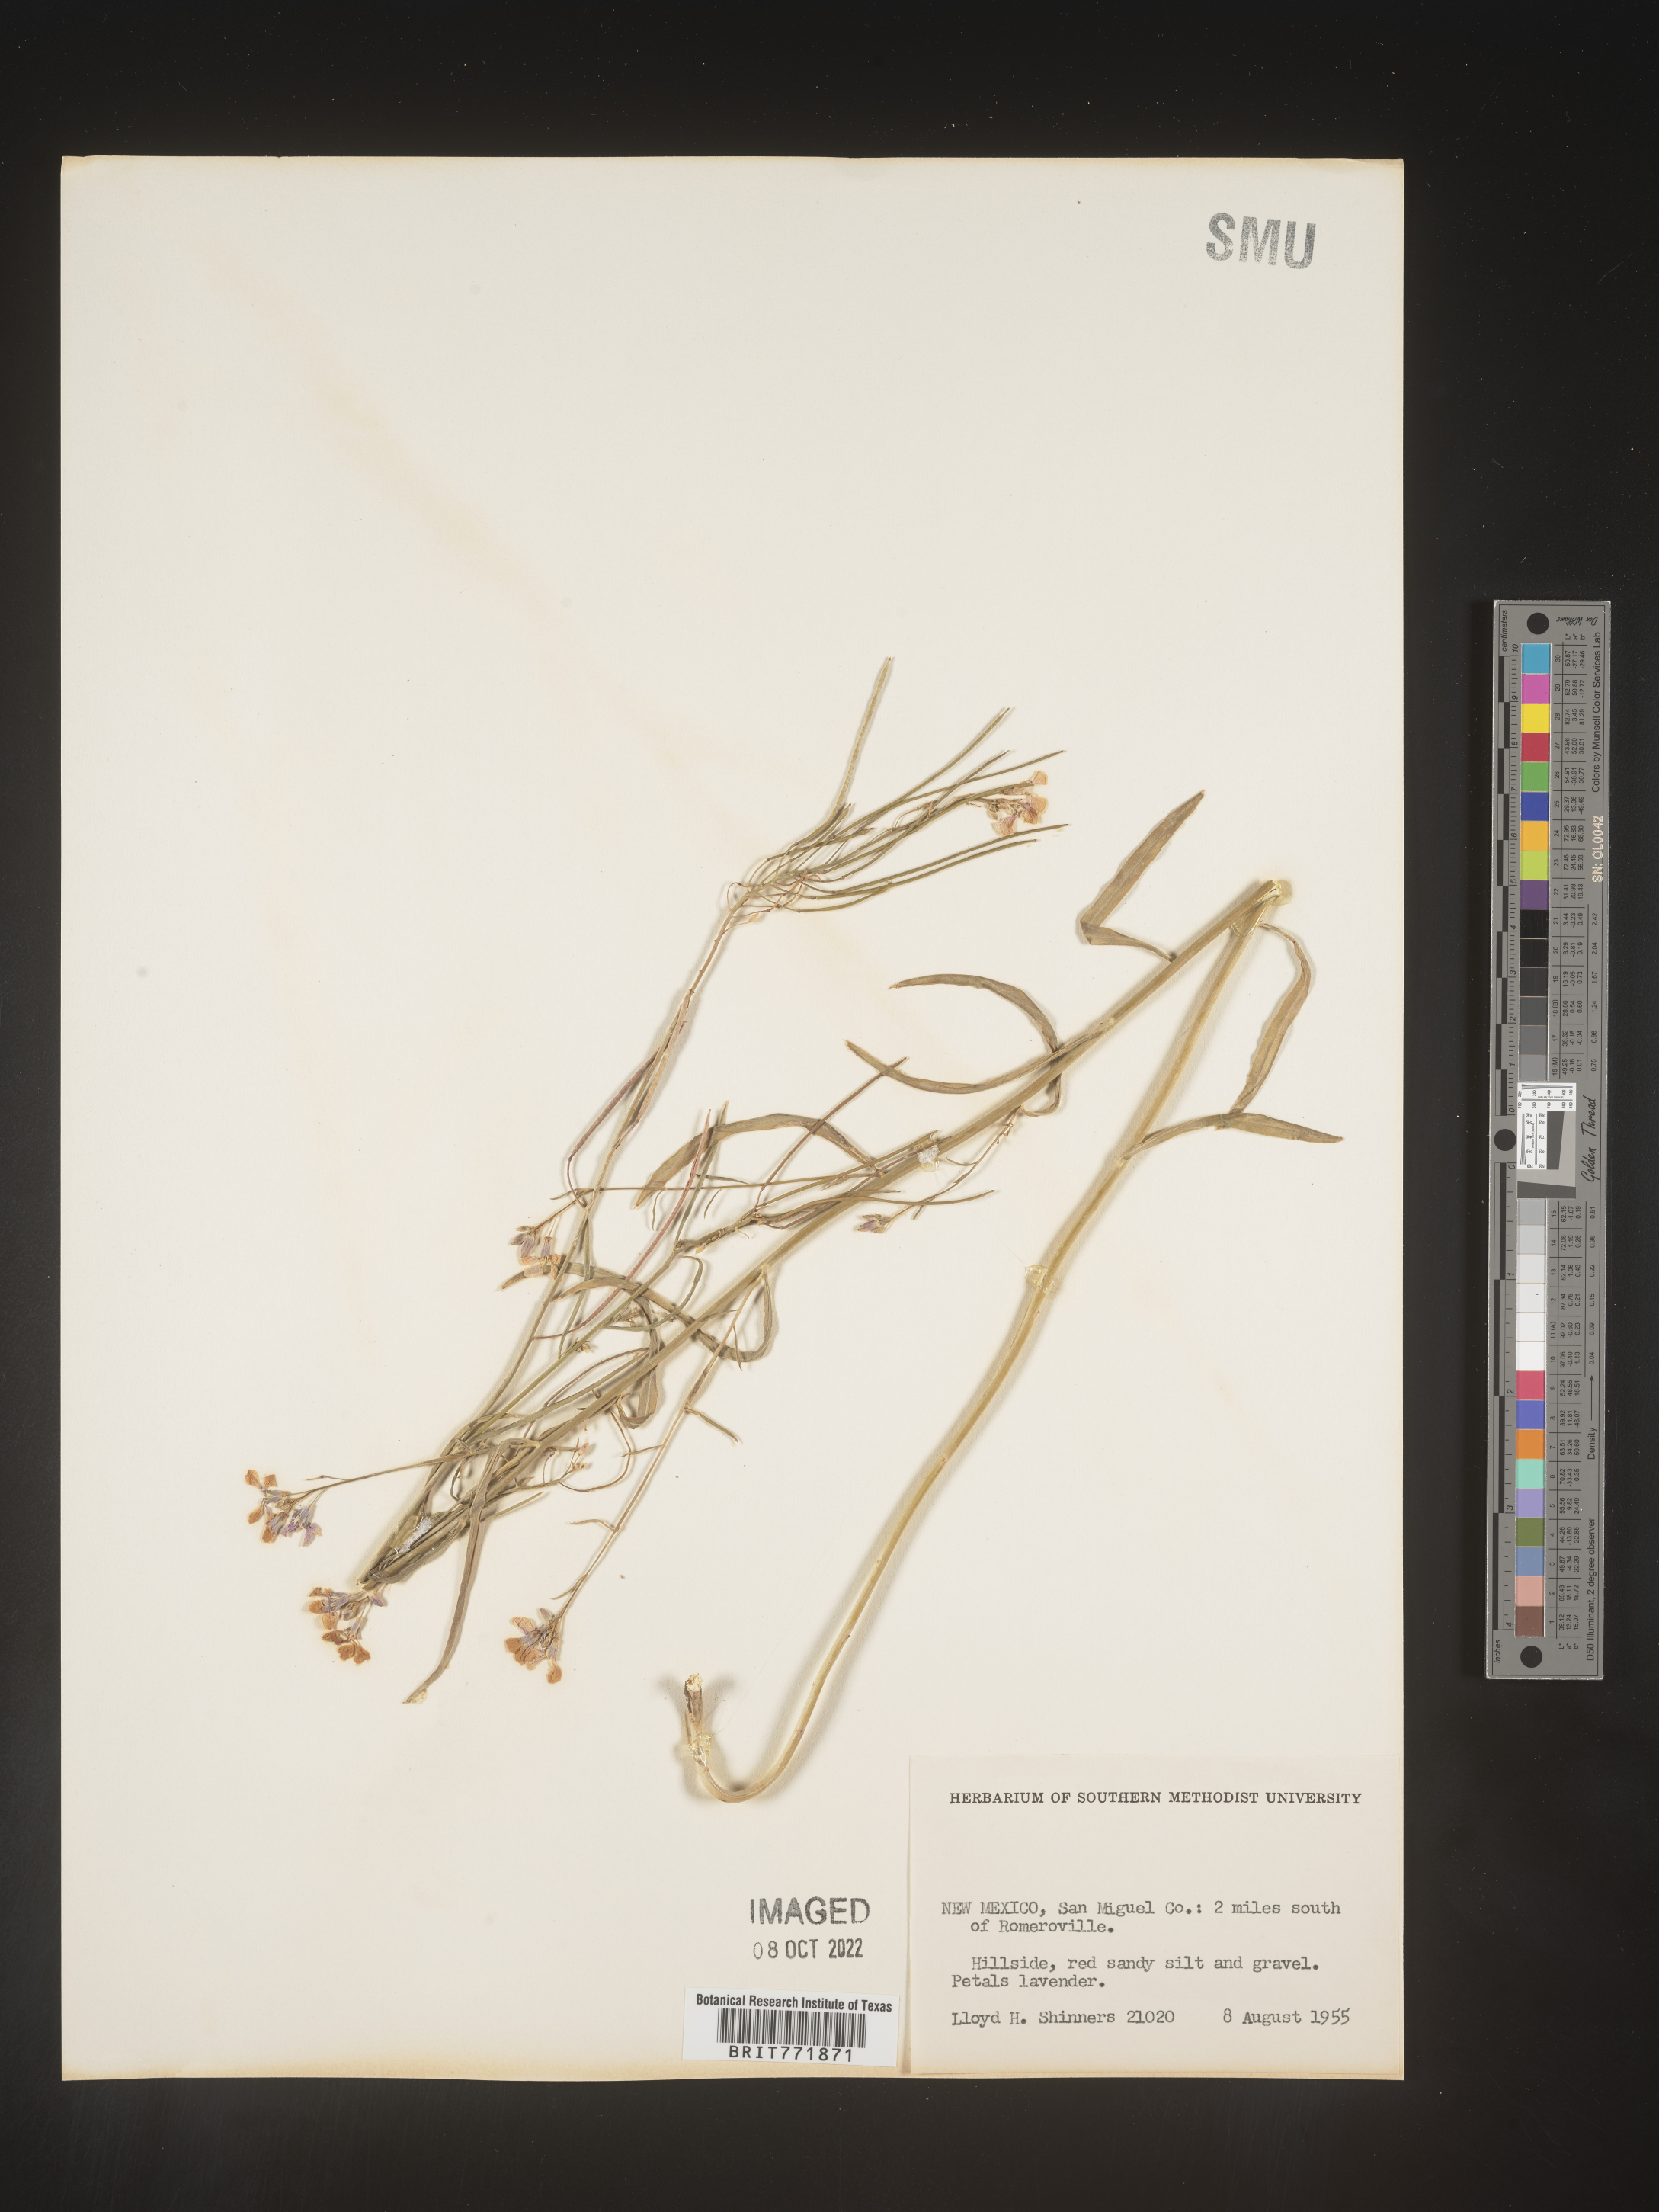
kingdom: Plantae
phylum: Tracheophyta
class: Magnoliopsida
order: Brassicales
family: Brassicaceae
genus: Arabis
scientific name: Arabis
